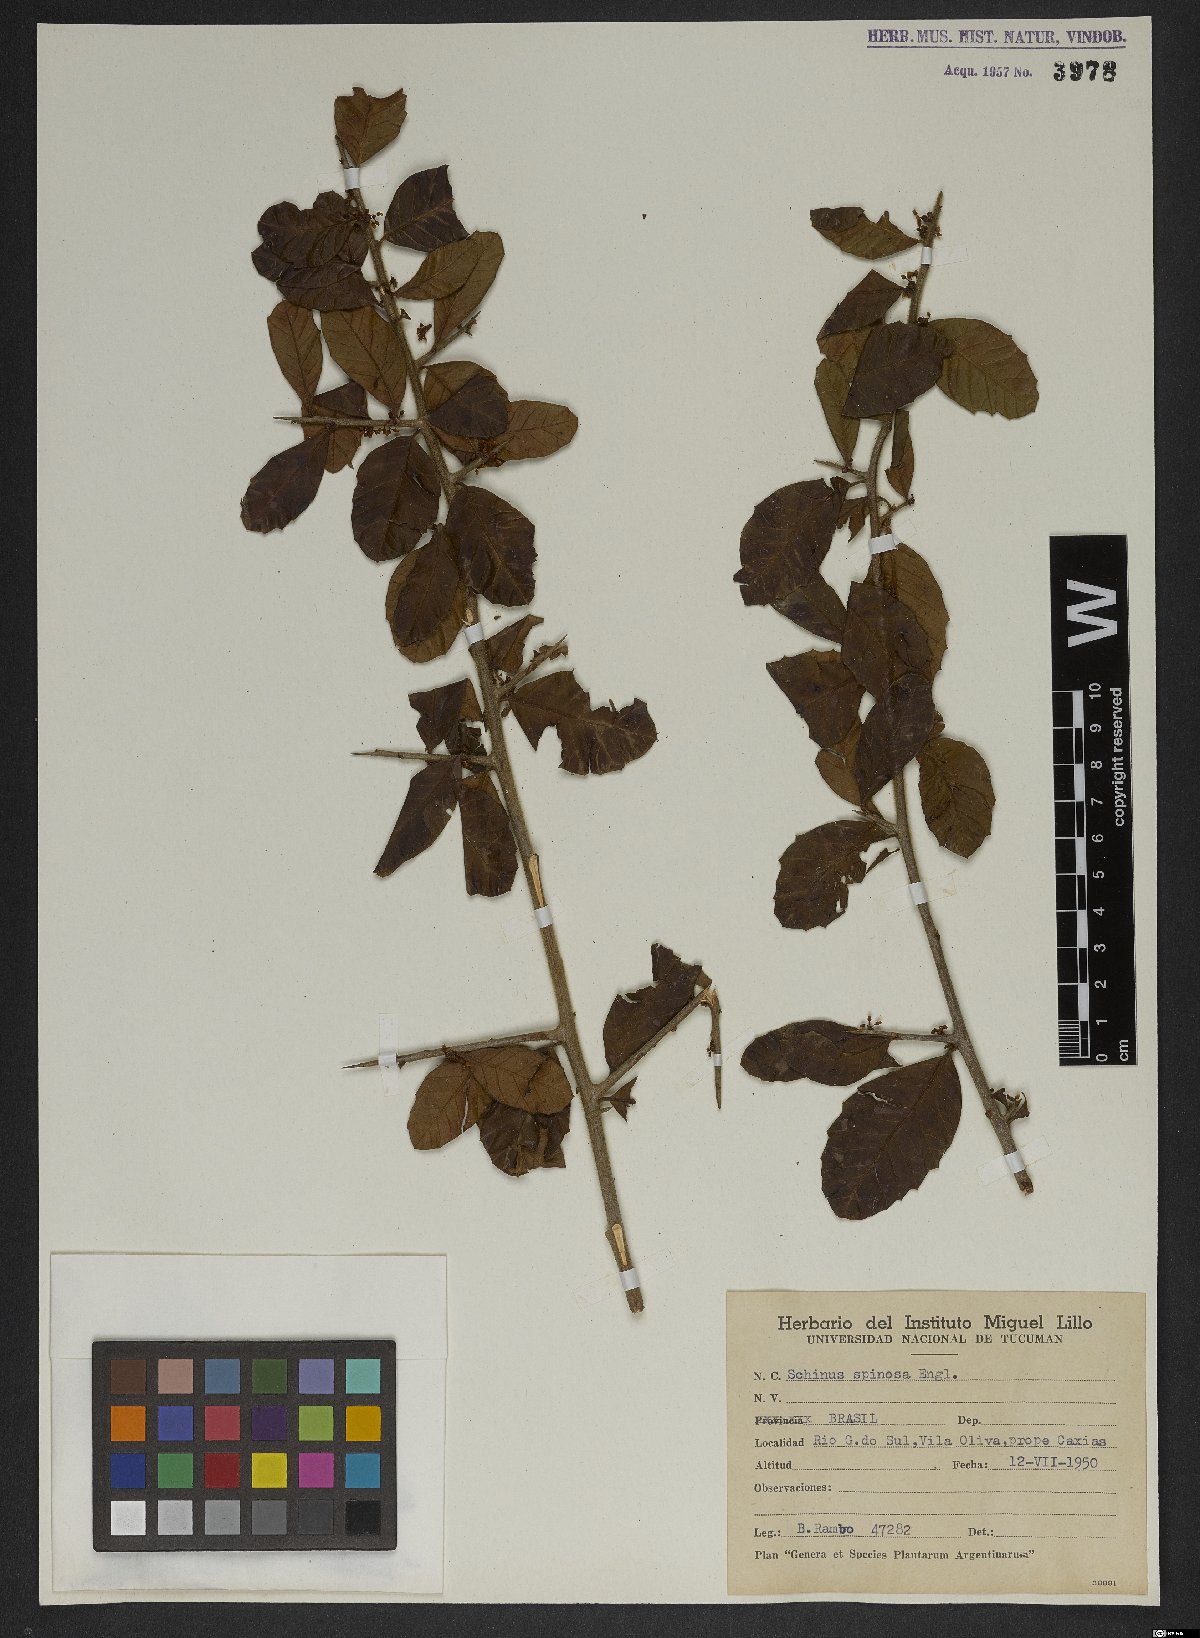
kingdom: Plantae
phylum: Tracheophyta
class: Magnoliopsida
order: Sapindales
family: Anacardiaceae
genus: Schinus
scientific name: Schinus spinosa
